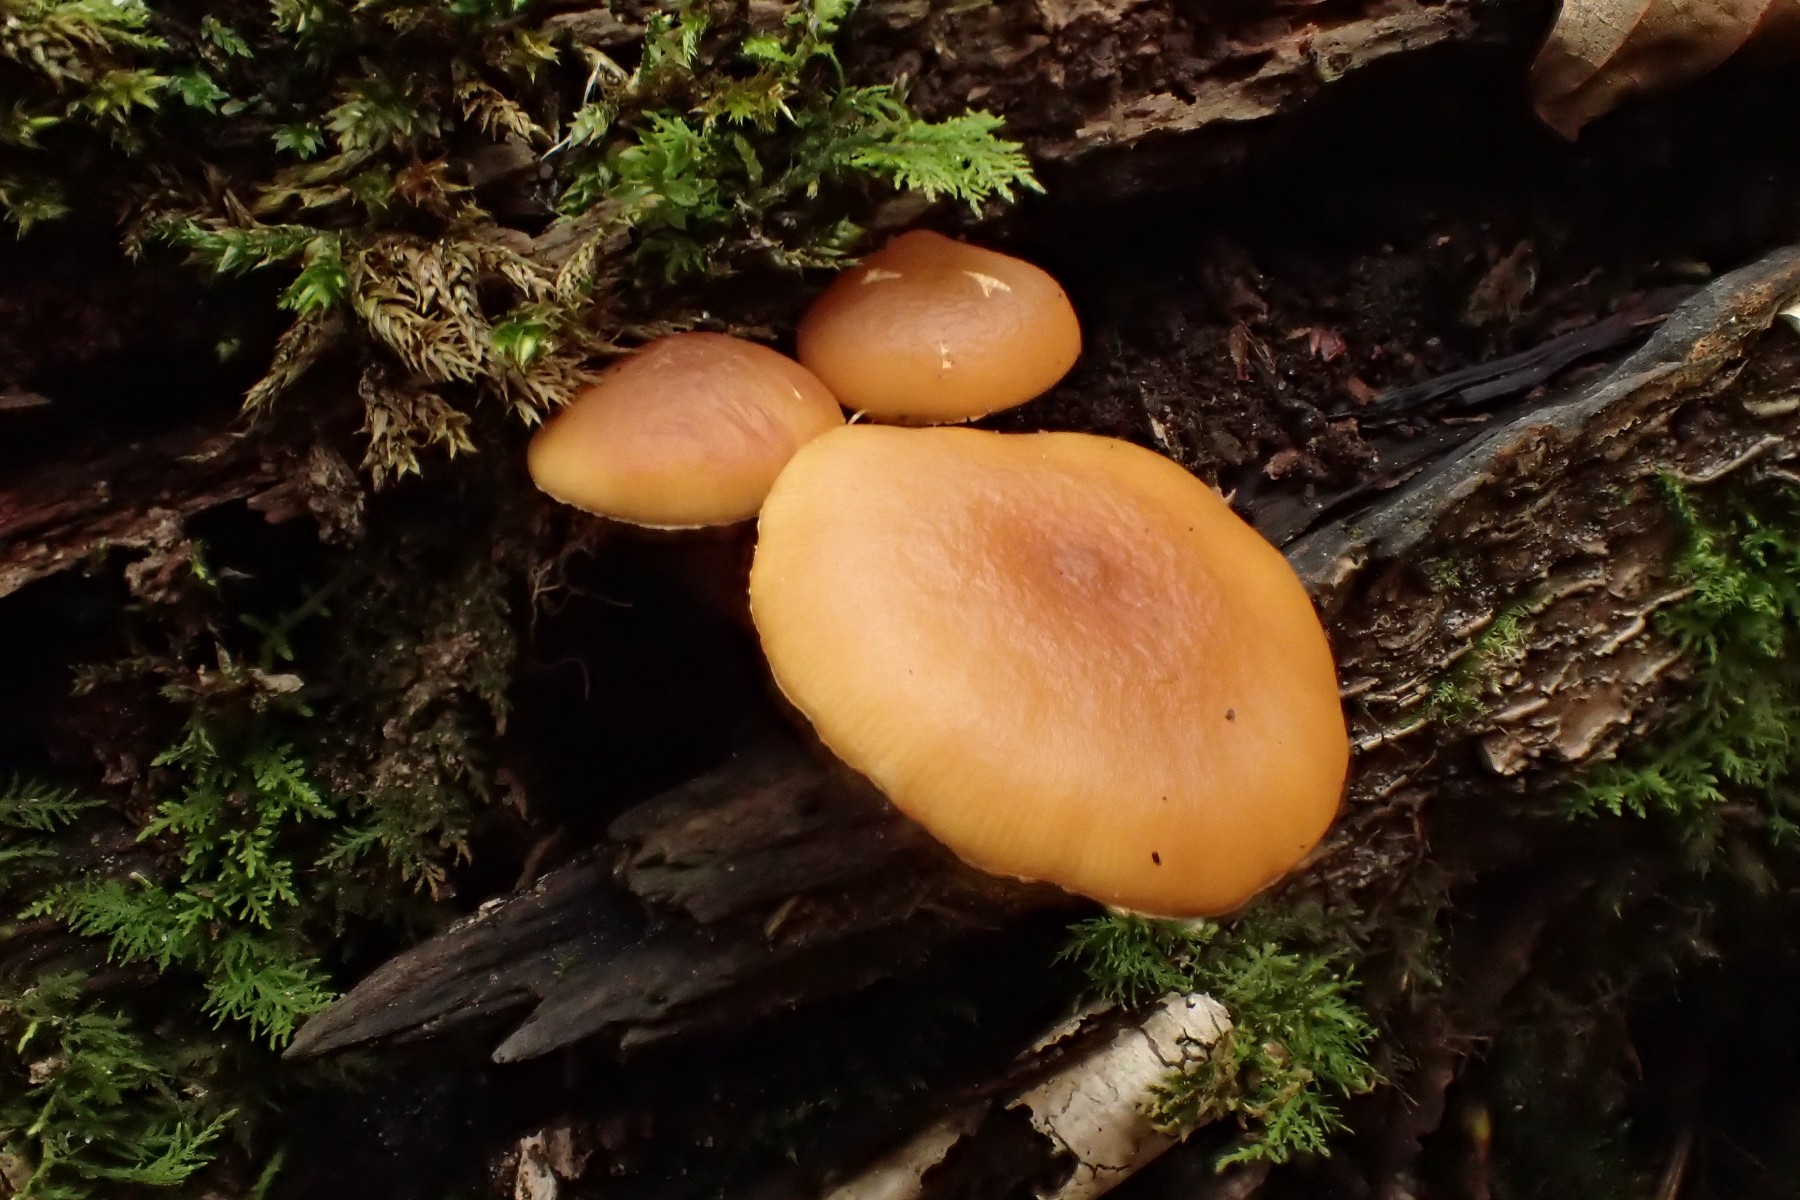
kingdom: Fungi
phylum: Basidiomycota
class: Agaricomycetes
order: Agaricales
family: Hymenogastraceae
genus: Galerina
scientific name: Galerina marginata
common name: randbæltet hjelmhat
